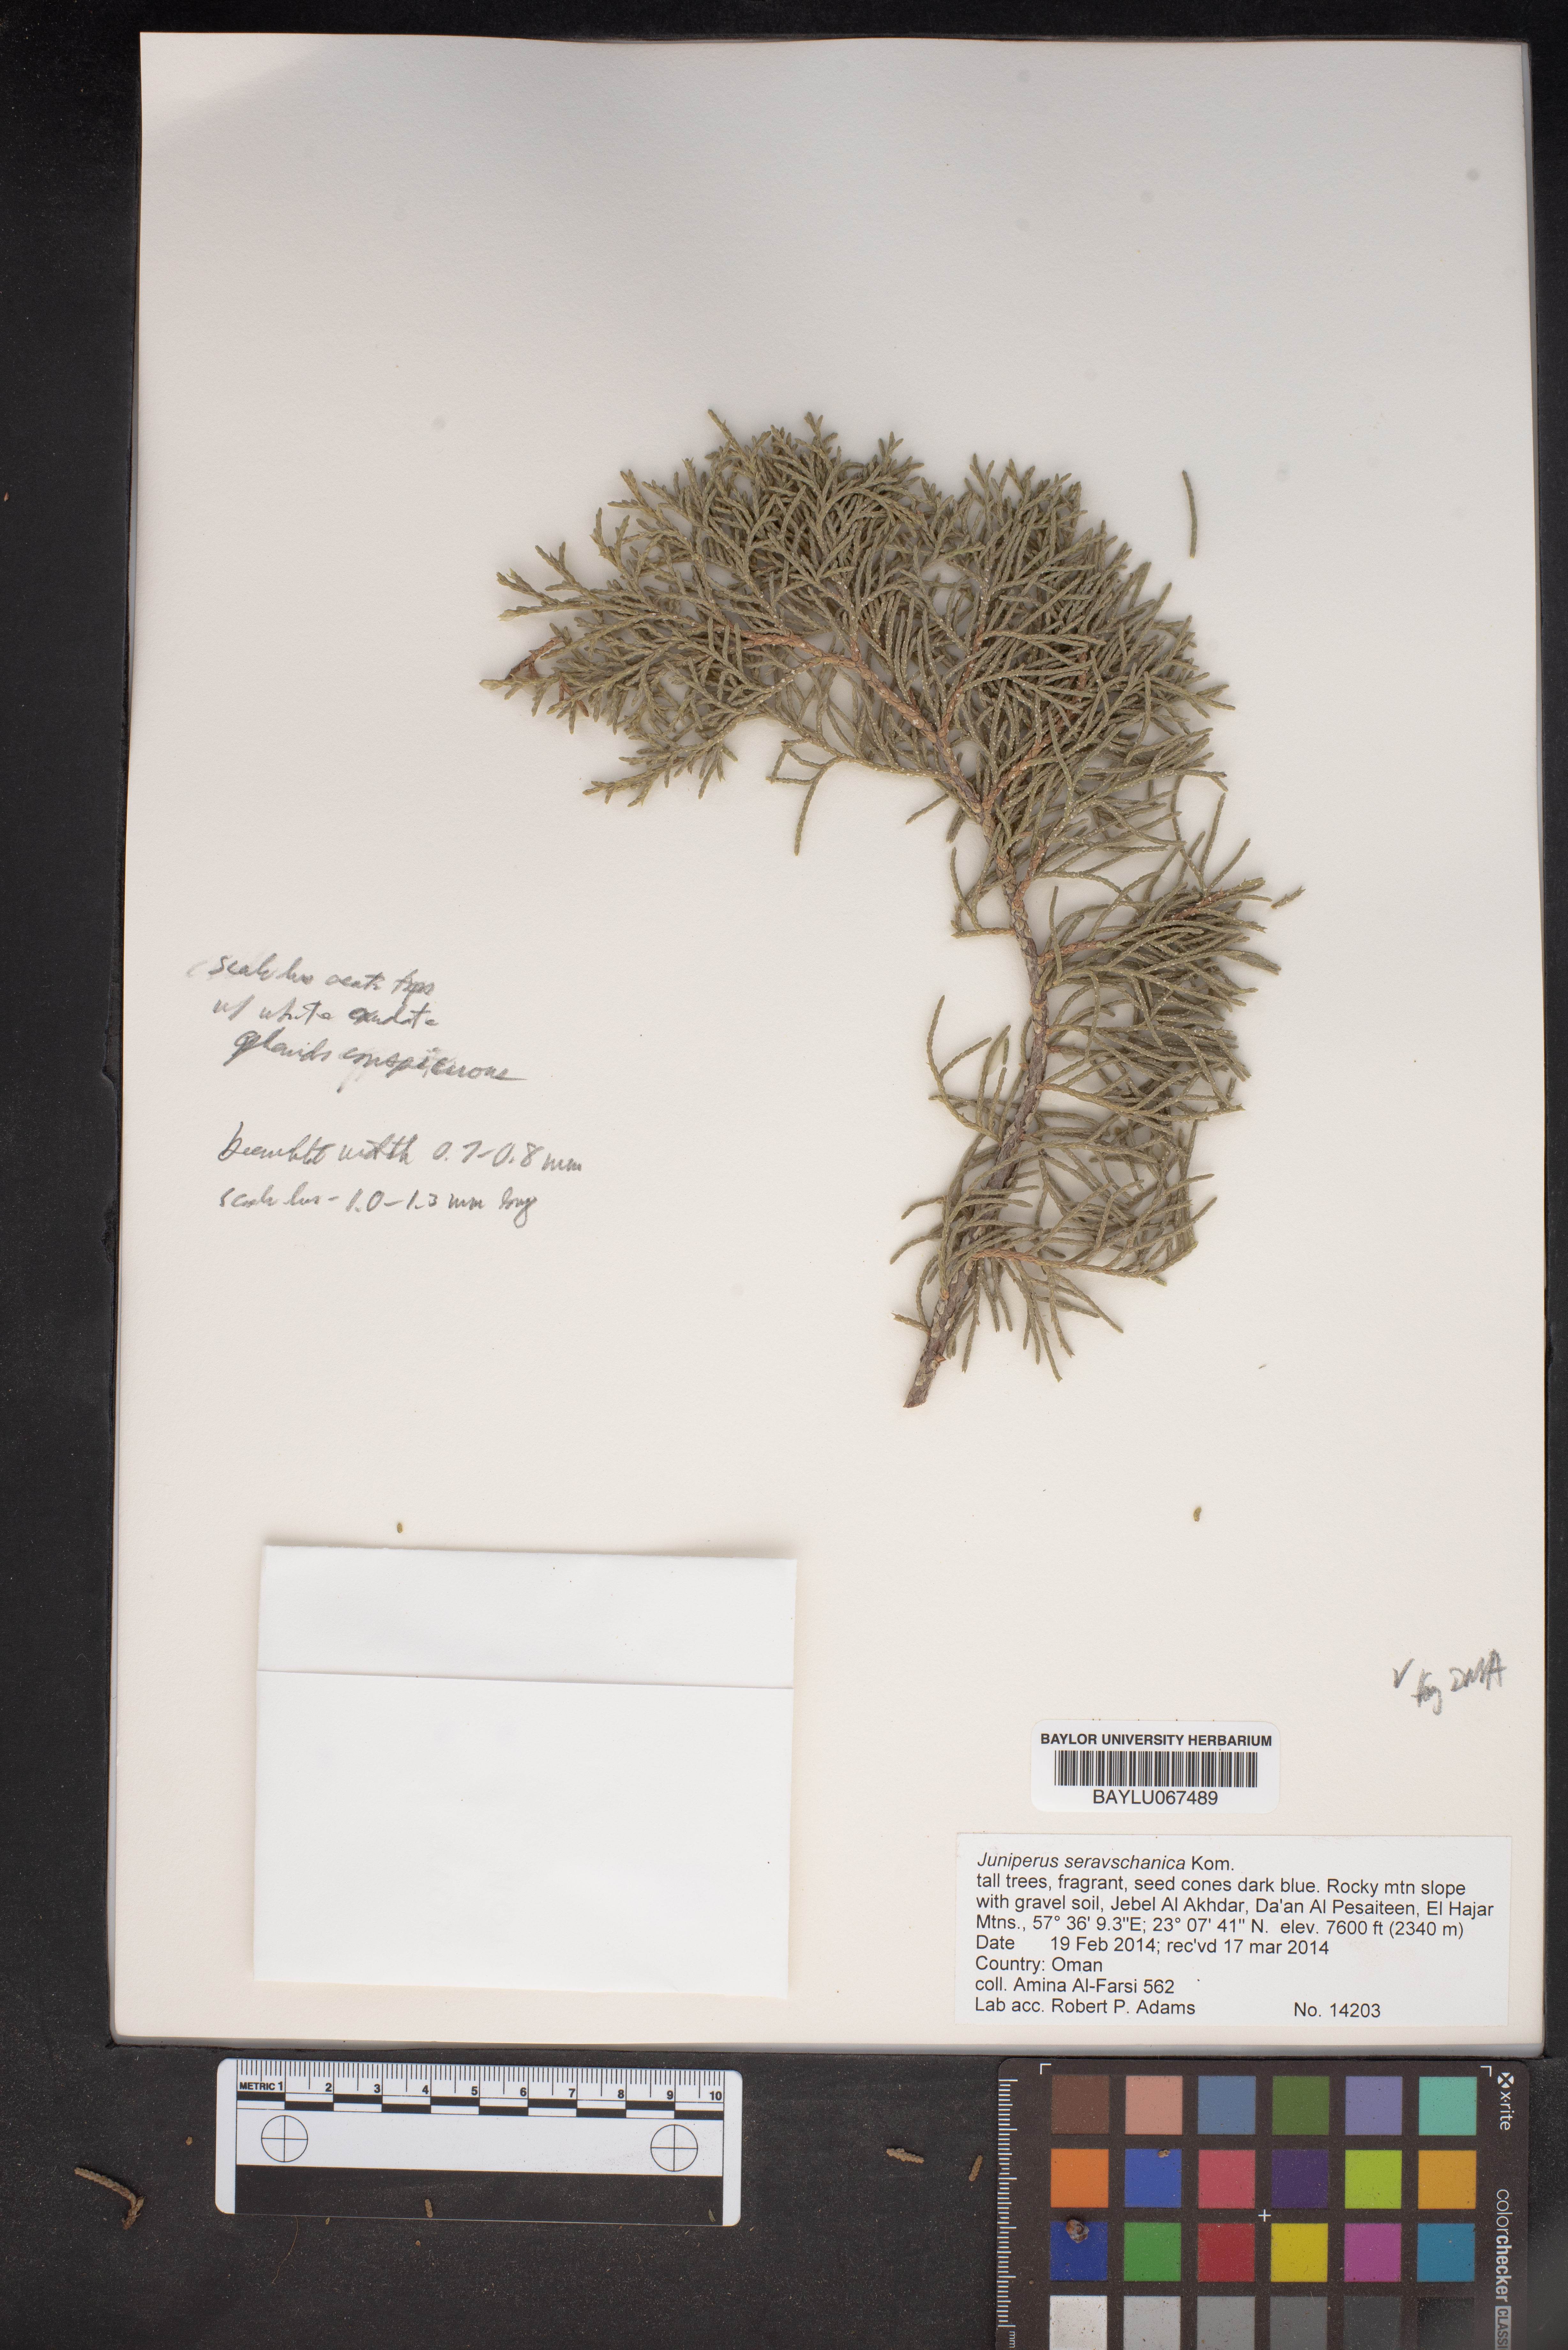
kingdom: Plantae
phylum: Tracheophyta
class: Pinopsida
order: Pinales
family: Cupressaceae
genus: Juniperus
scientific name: Juniperus excelsa
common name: Crimean juniper
